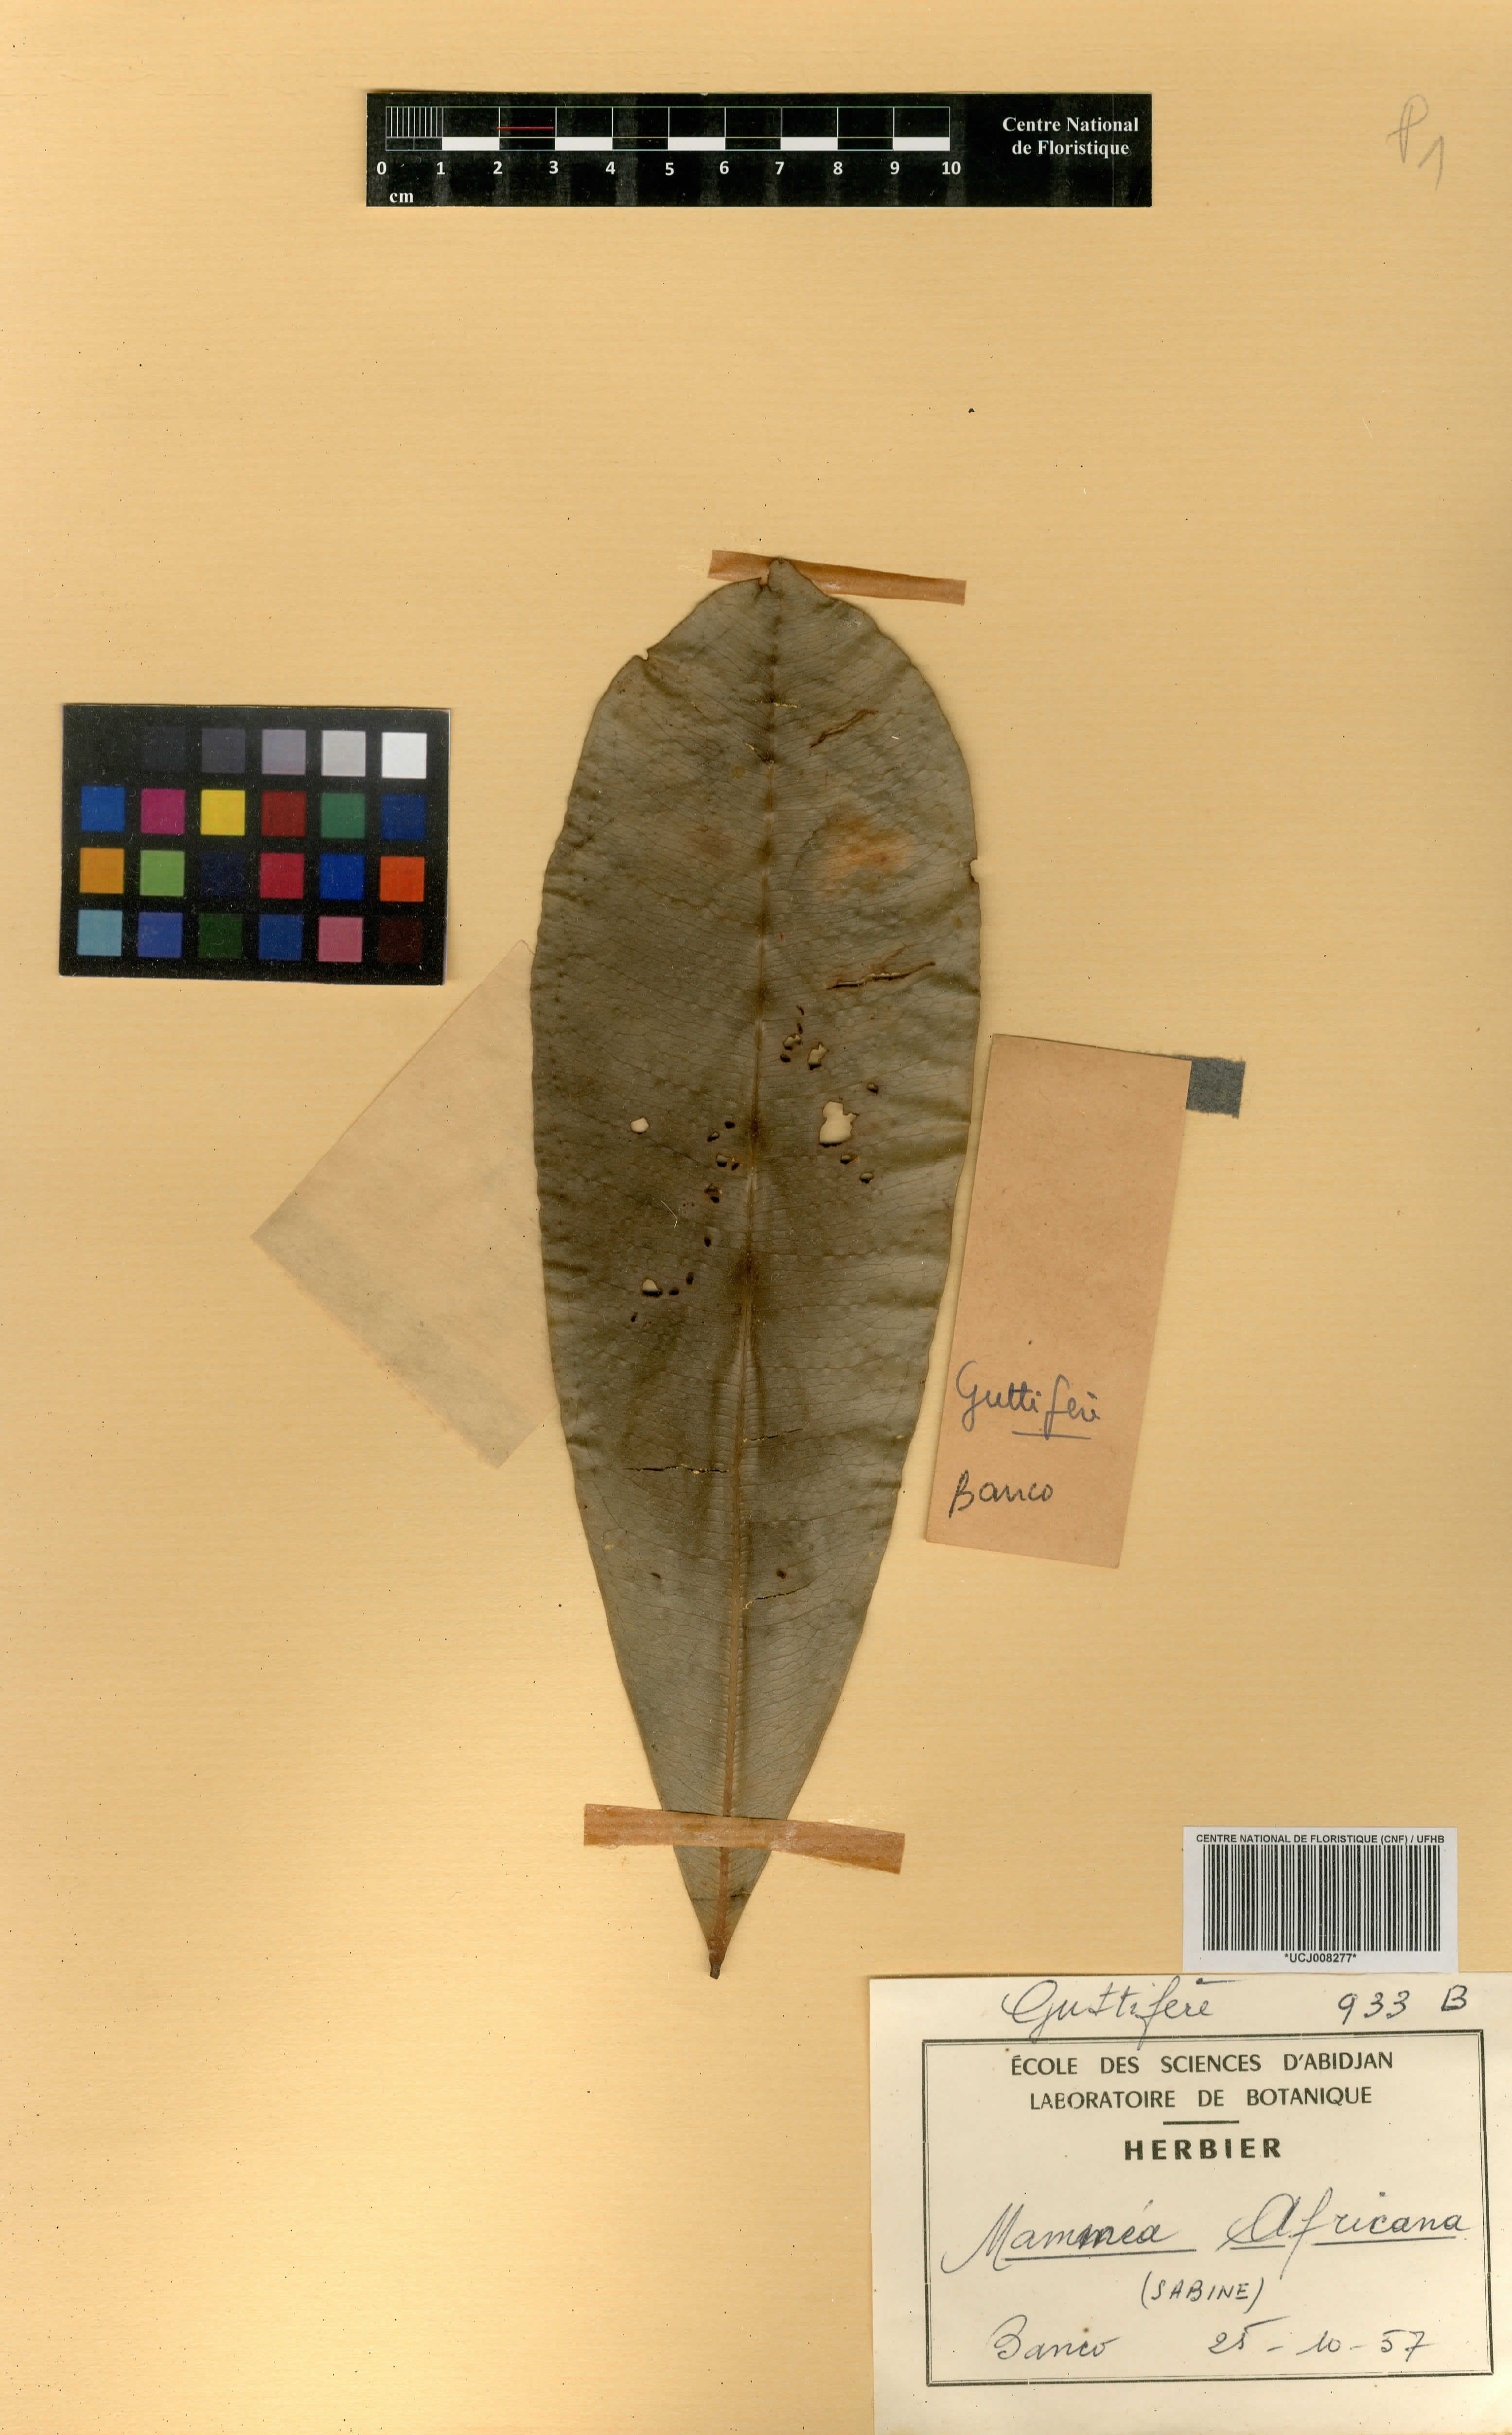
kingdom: Plantae
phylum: Tracheophyta
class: Magnoliopsida
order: Malpighiales
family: Calophyllaceae
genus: Mammea
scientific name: Mammea africana
